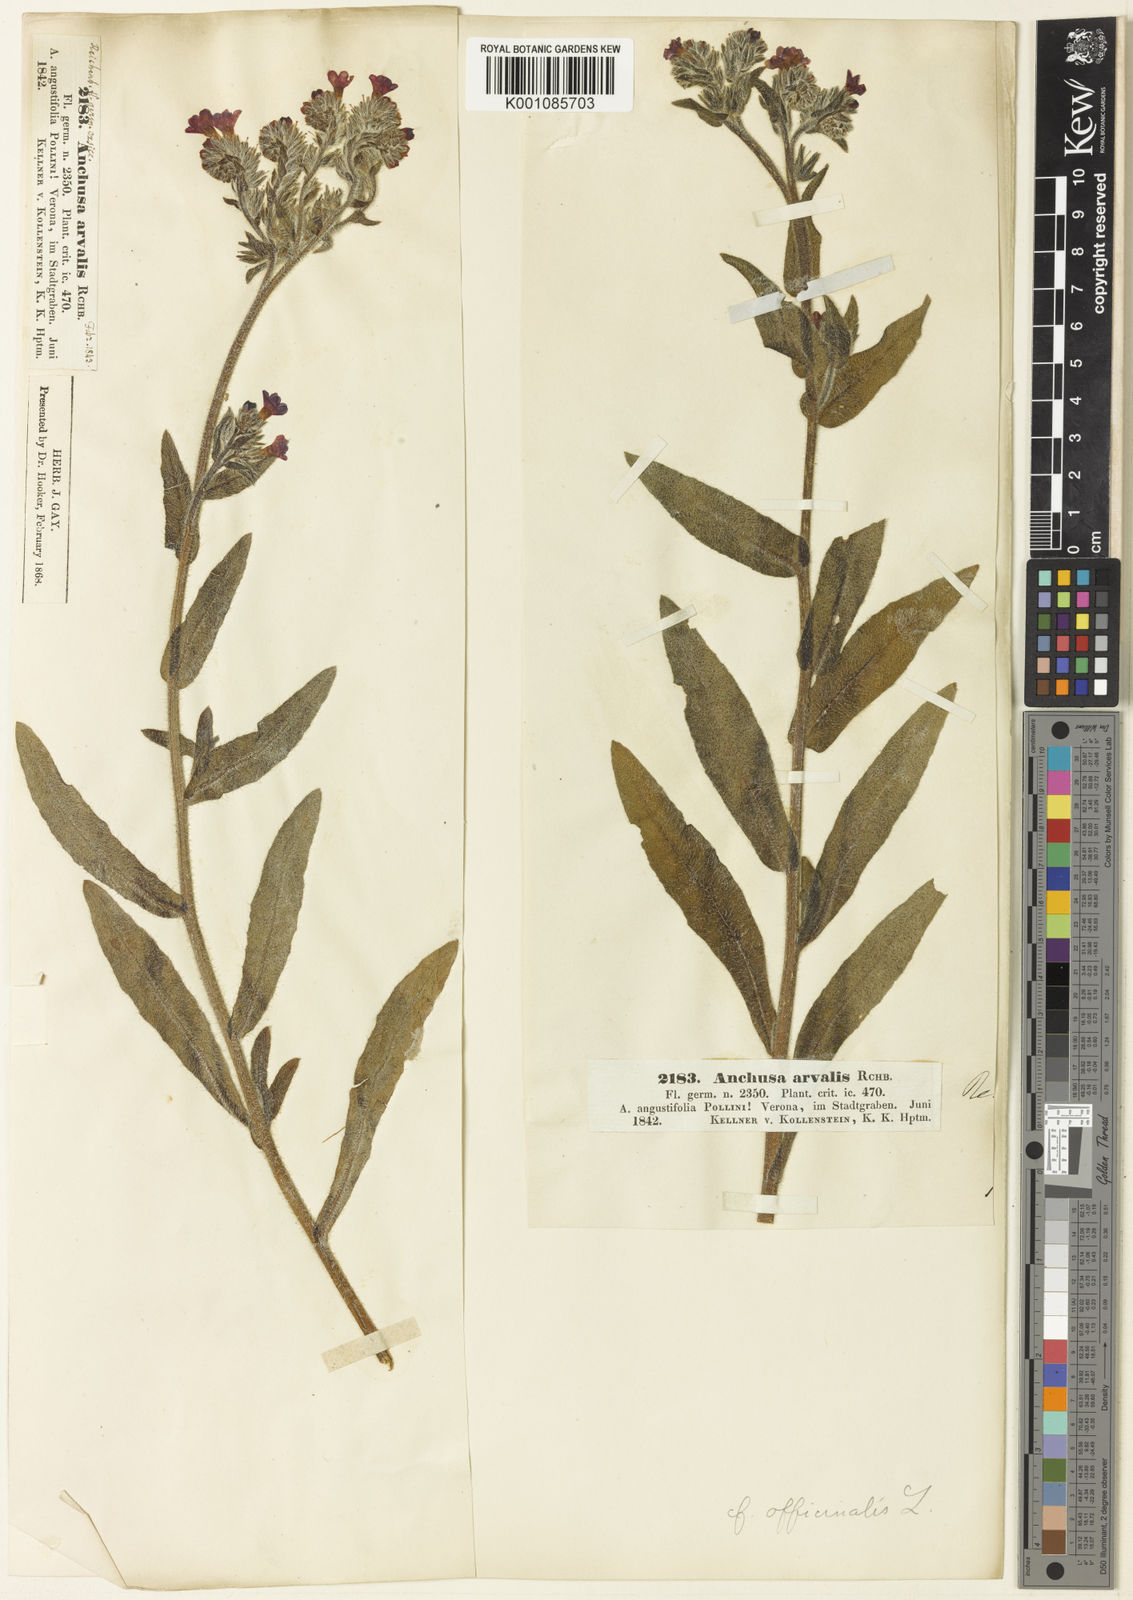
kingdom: Plantae
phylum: Tracheophyta
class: Magnoliopsida
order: Boraginales
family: Boraginaceae
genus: Anchusa
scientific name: Anchusa officinalis
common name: Alkanet
